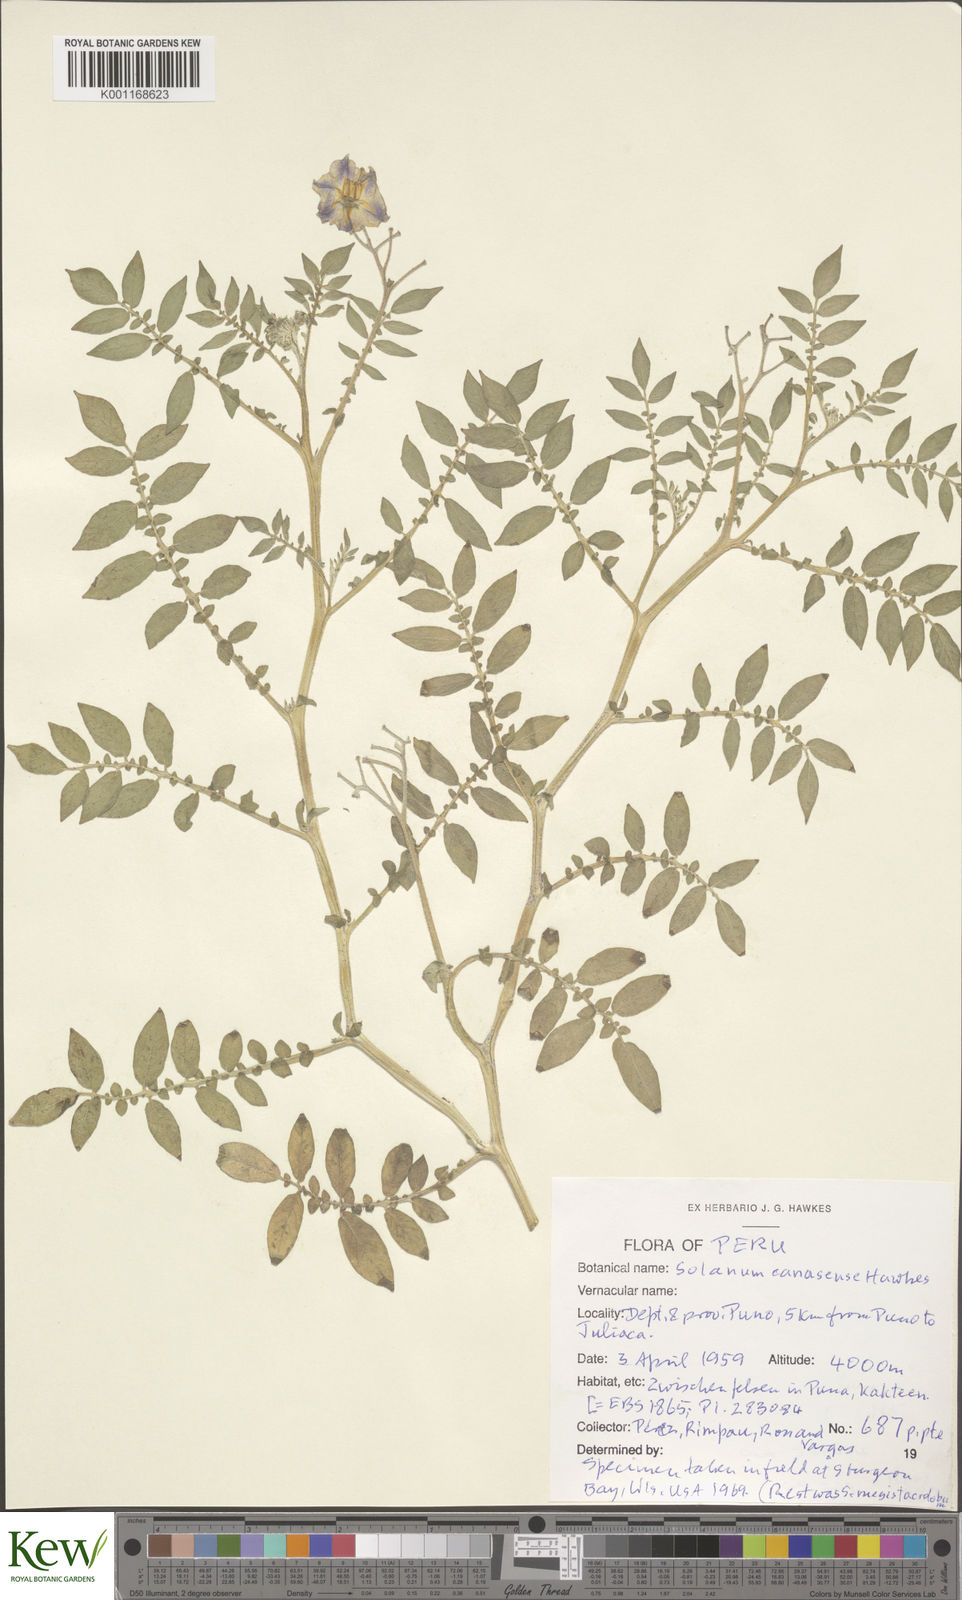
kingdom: Plantae
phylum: Tracheophyta
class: Magnoliopsida
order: Solanales
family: Solanaceae
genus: Solanum
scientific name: Solanum candolleanum
